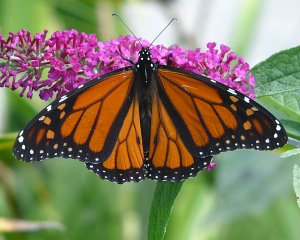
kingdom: Animalia
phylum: Arthropoda
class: Insecta
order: Lepidoptera
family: Nymphalidae
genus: Danaus
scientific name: Danaus plexippus
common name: Monarch
